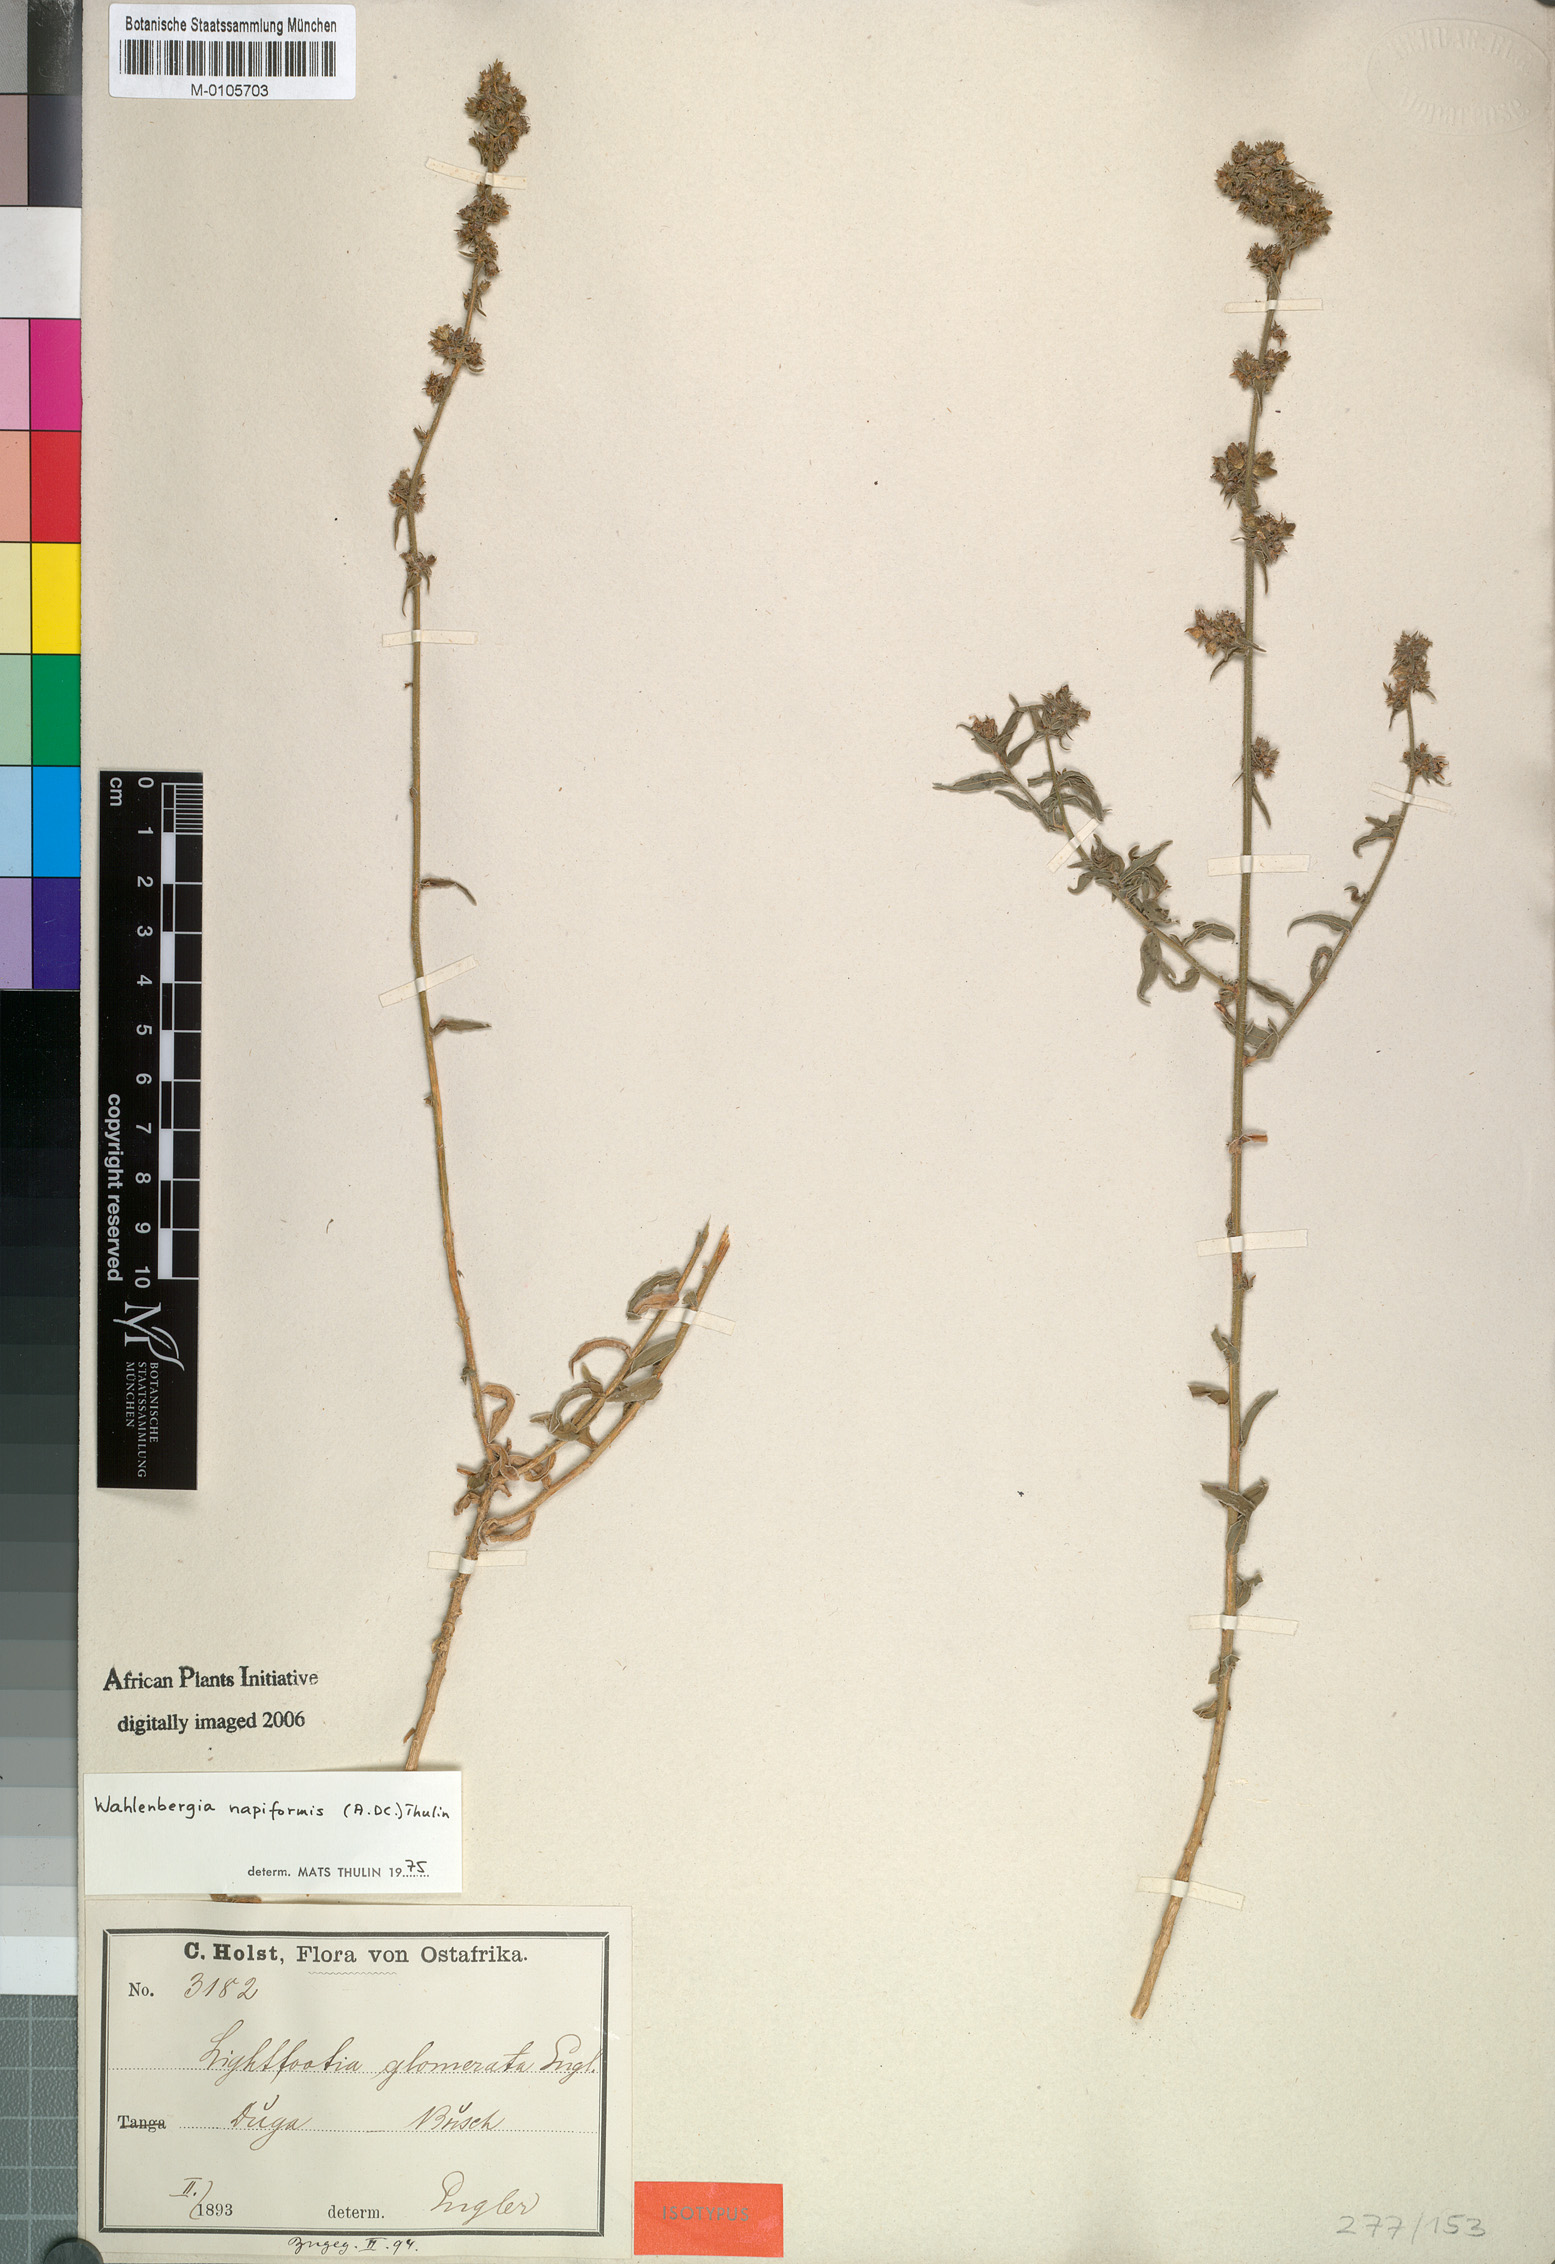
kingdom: Plantae
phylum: Tracheophyta
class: Magnoliopsida
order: Asterales
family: Campanulaceae
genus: Wahlenbergia
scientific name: Wahlenbergia napiformis
